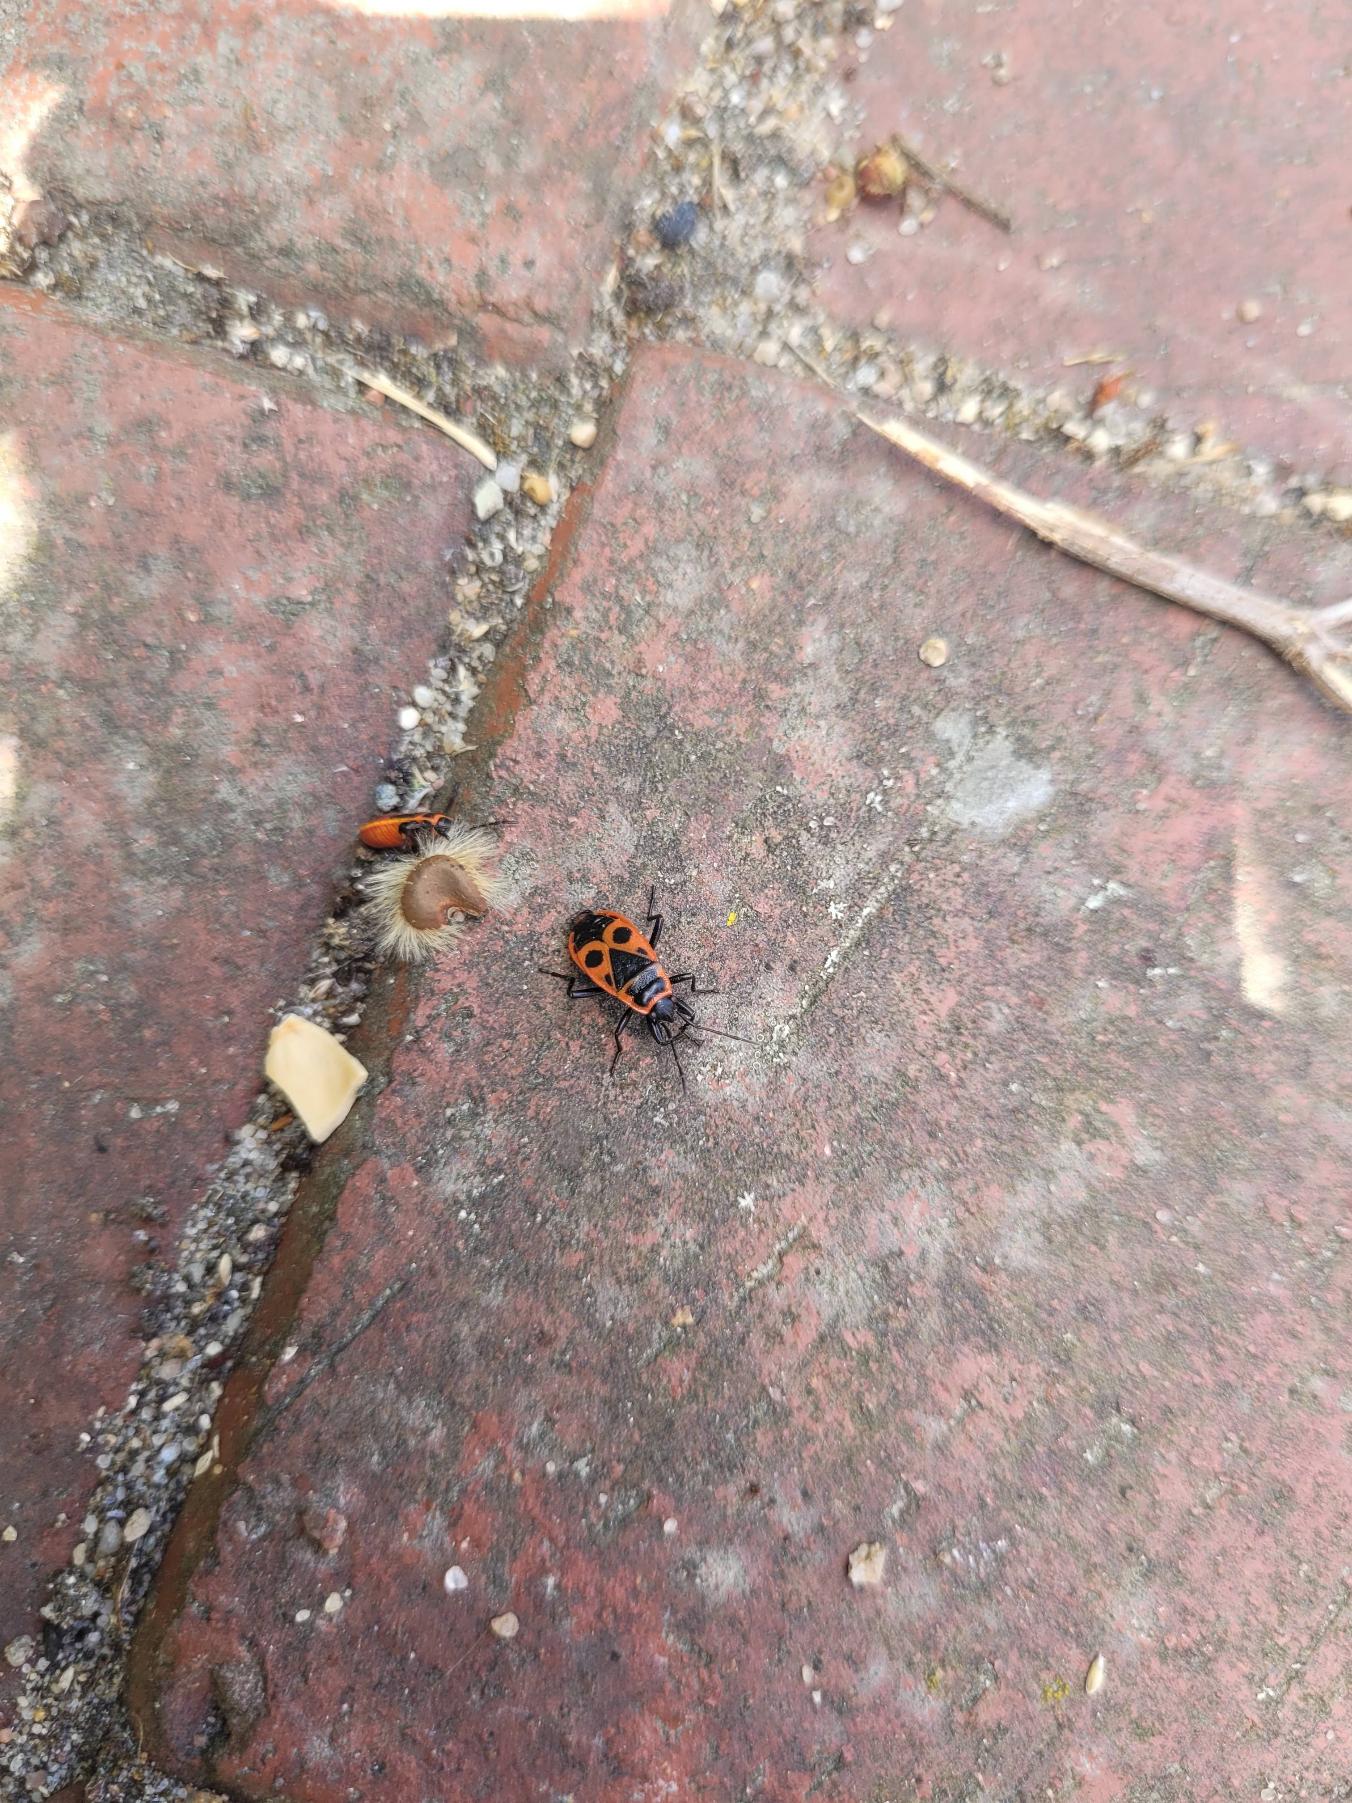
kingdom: Animalia
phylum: Arthropoda
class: Insecta
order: Hemiptera
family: Pyrrhocoridae
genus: Pyrrhocoris
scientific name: Pyrrhocoris apterus
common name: Ildtæge
